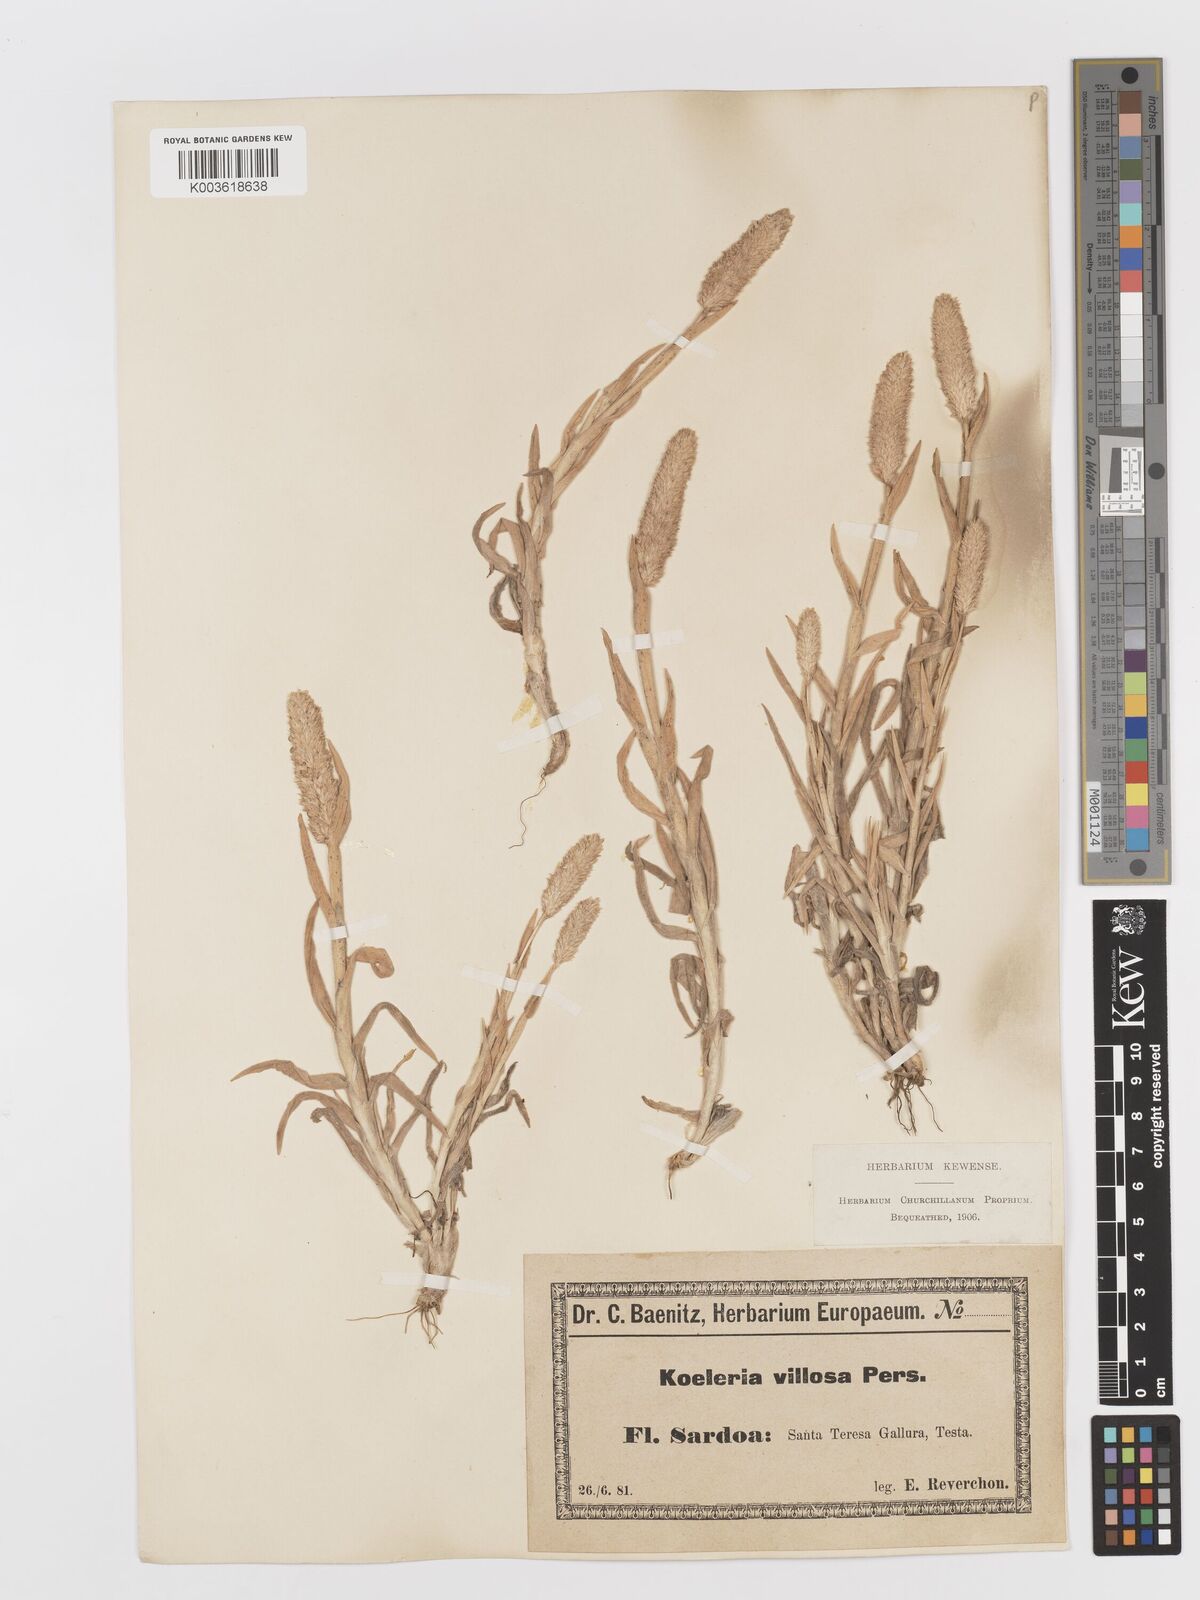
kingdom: Plantae
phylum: Tracheophyta
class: Liliopsida
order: Poales
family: Poaceae
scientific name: Poaceae
